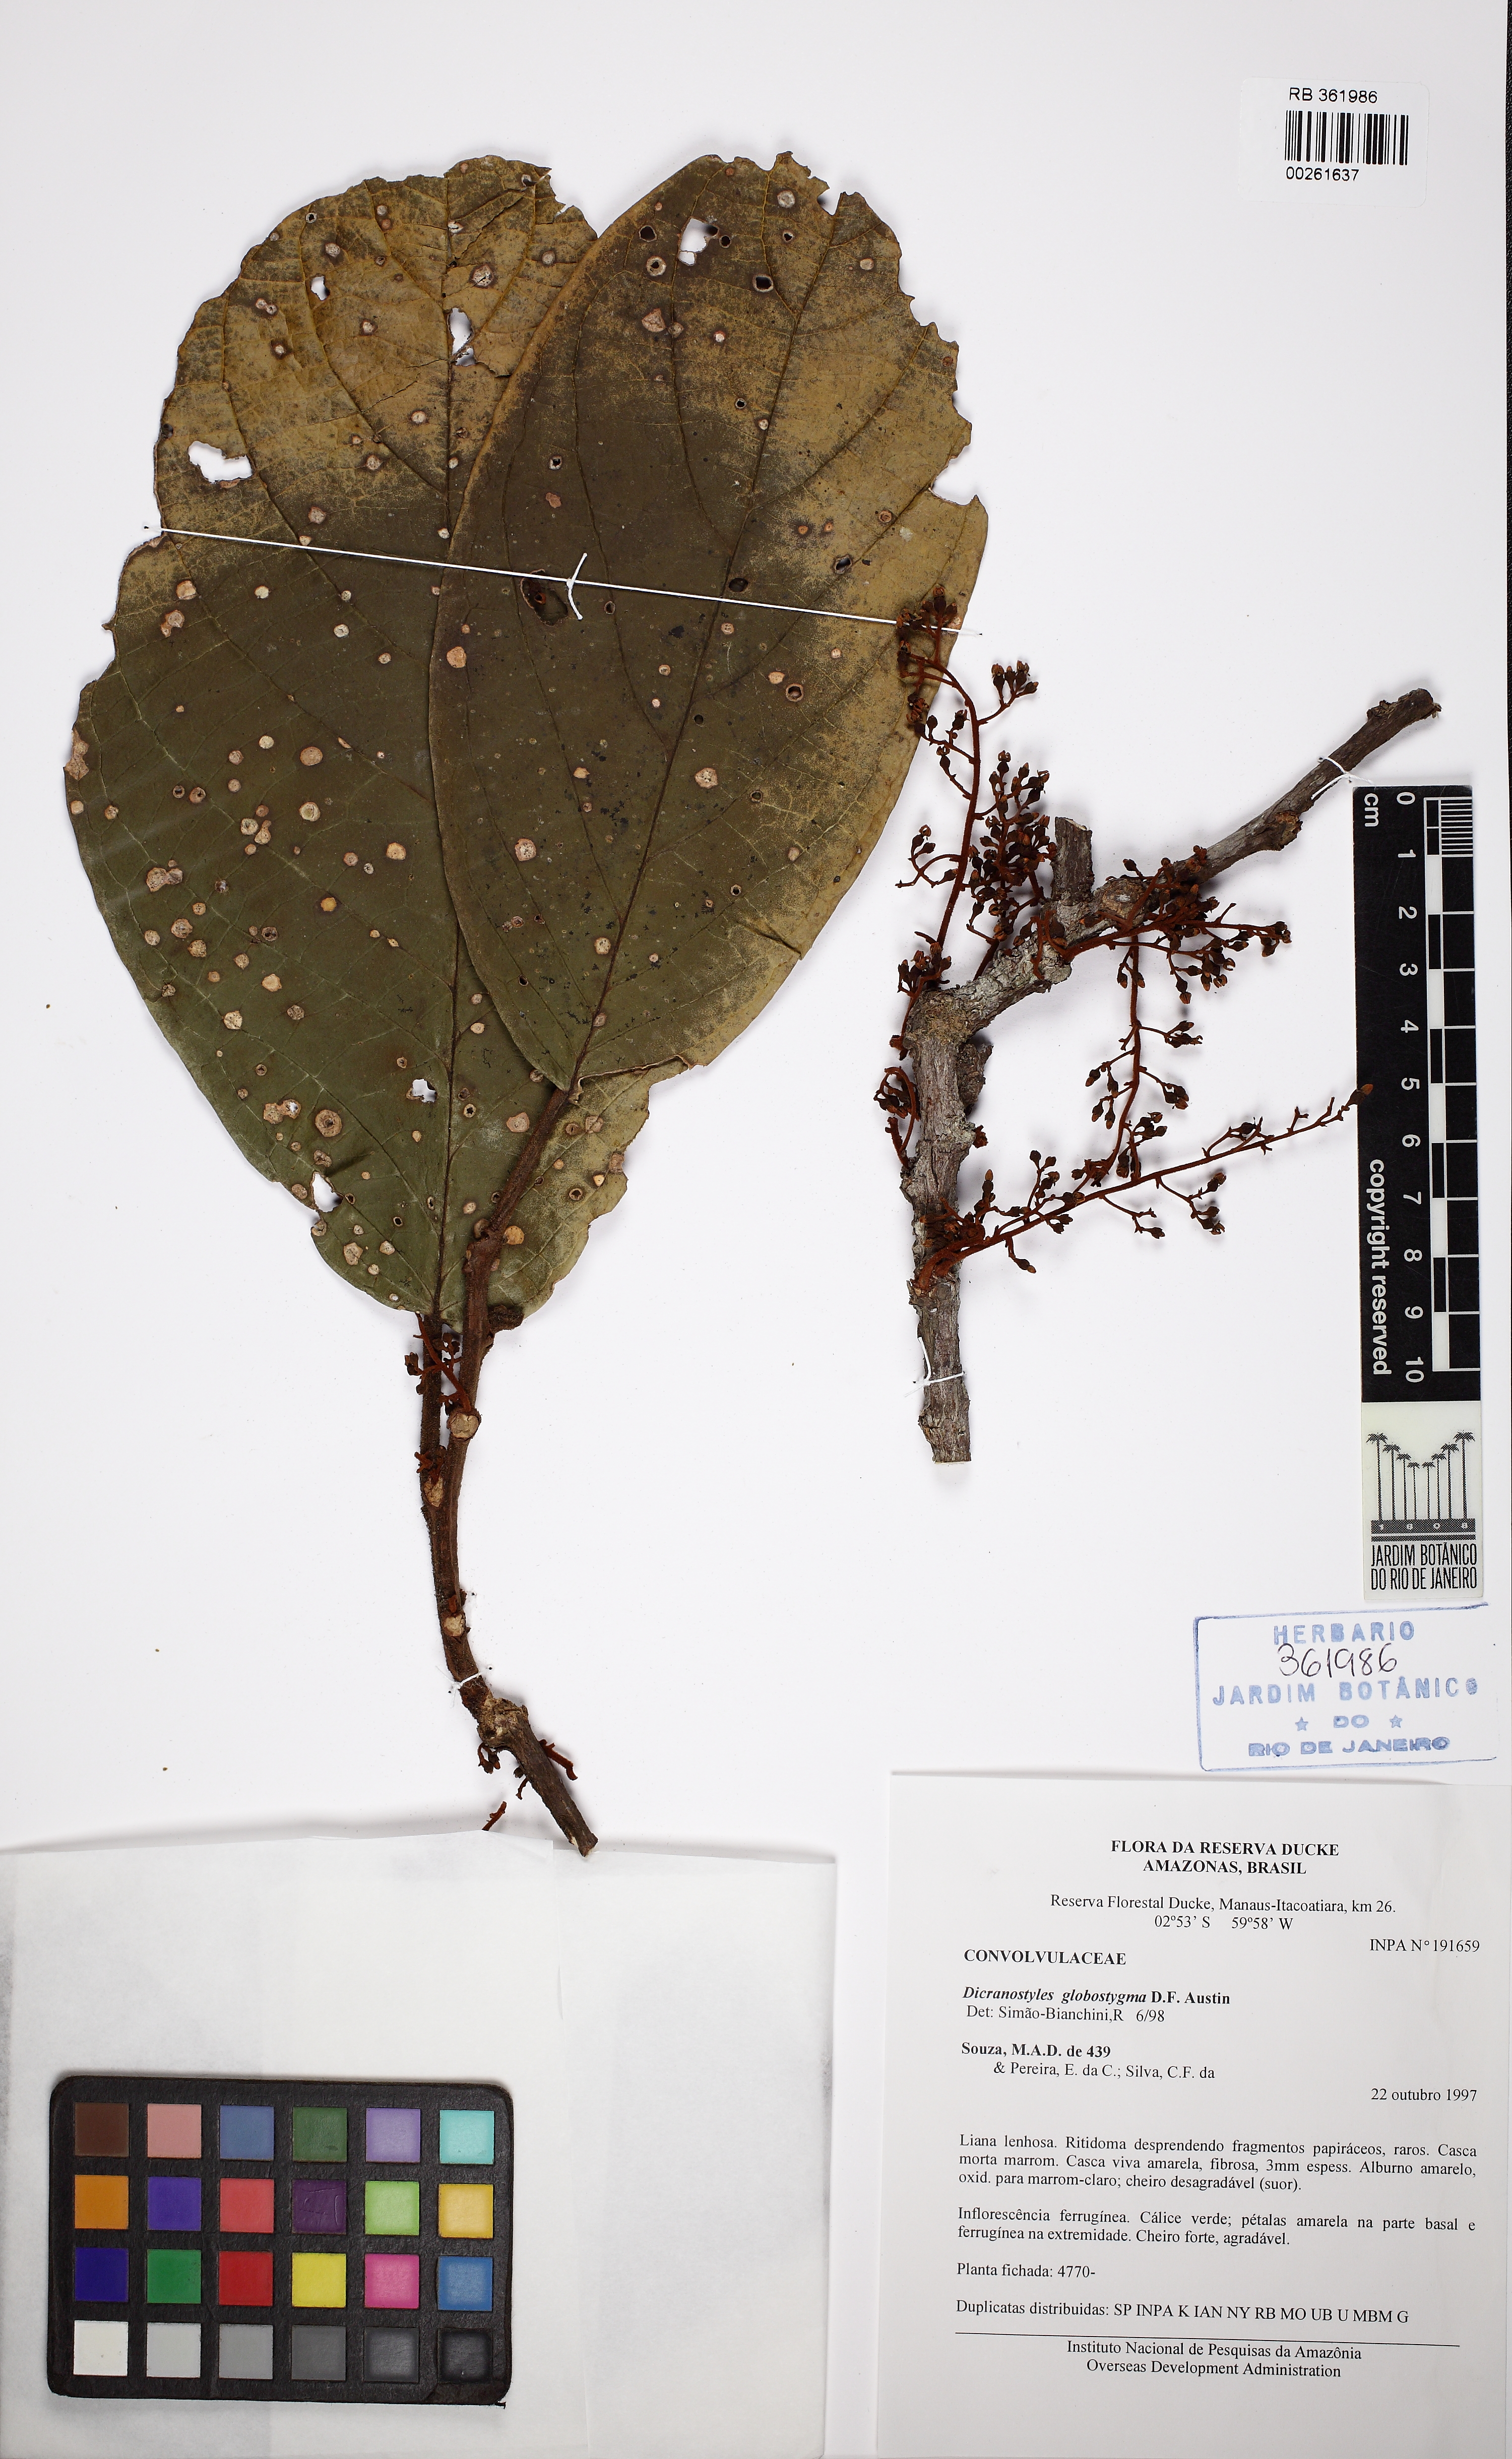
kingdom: Plantae
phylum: Tracheophyta
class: Magnoliopsida
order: Solanales
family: Convolvulaceae
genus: Dicranostyles
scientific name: Dicranostyles globostigma
